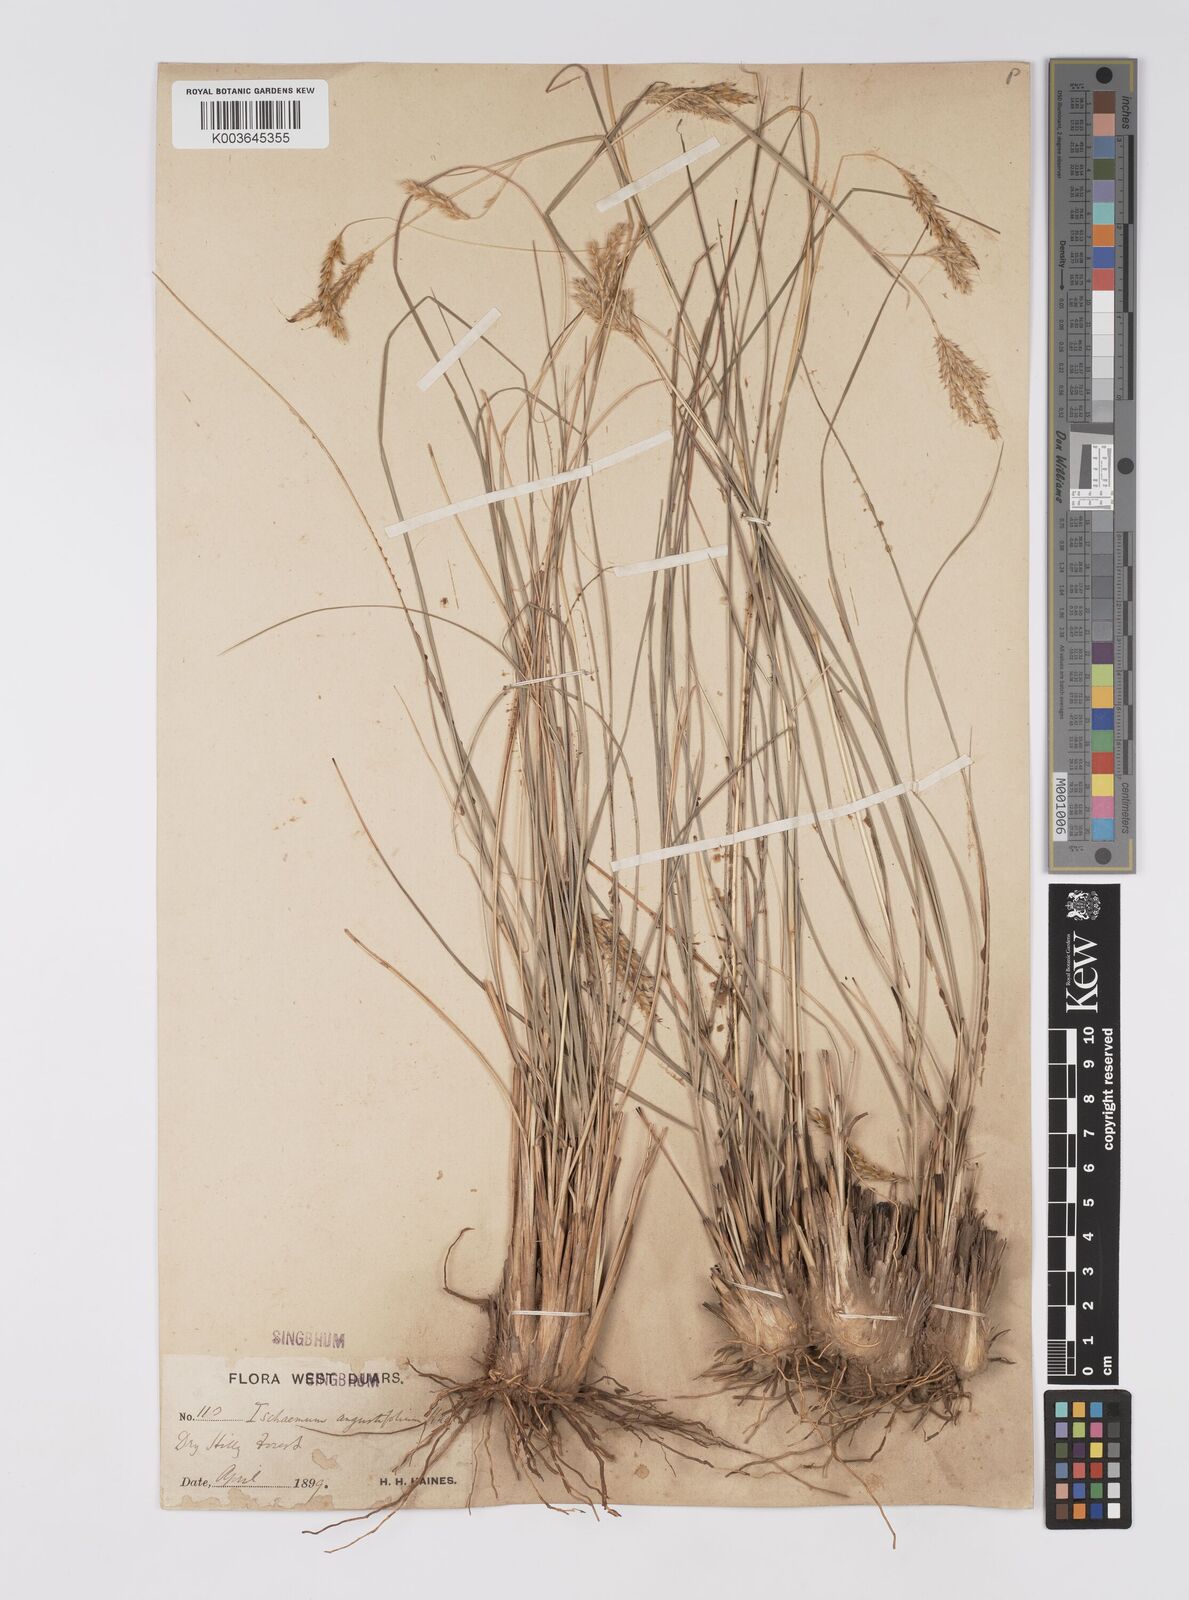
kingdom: Plantae
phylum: Tracheophyta
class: Liliopsida
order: Poales
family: Poaceae
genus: Eulaliopsis
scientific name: Eulaliopsis binata
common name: Baib grass
